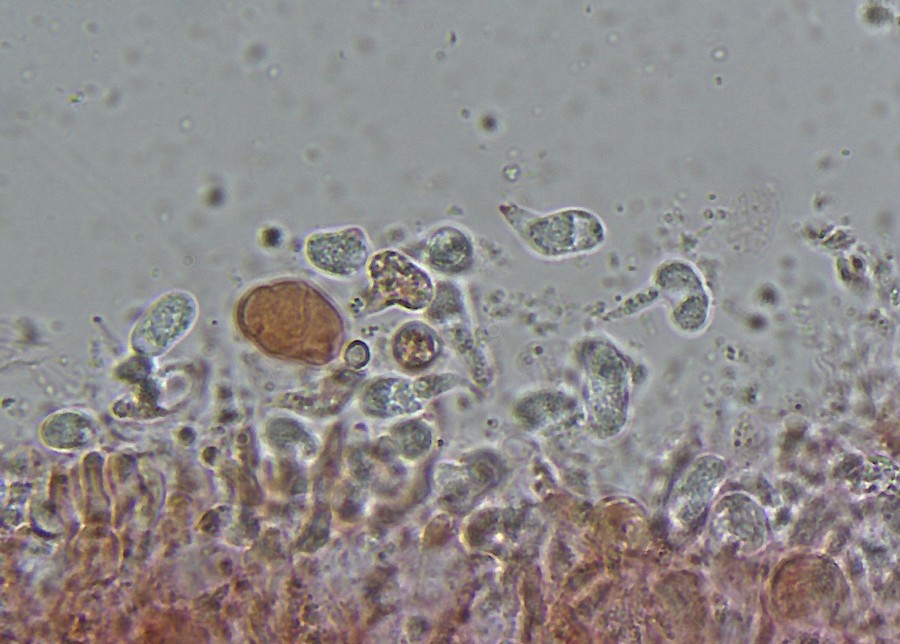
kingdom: Fungi
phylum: Basidiomycota
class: Agaricomycetes
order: Auriculariales
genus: Stypella
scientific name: Stypella grilletii
